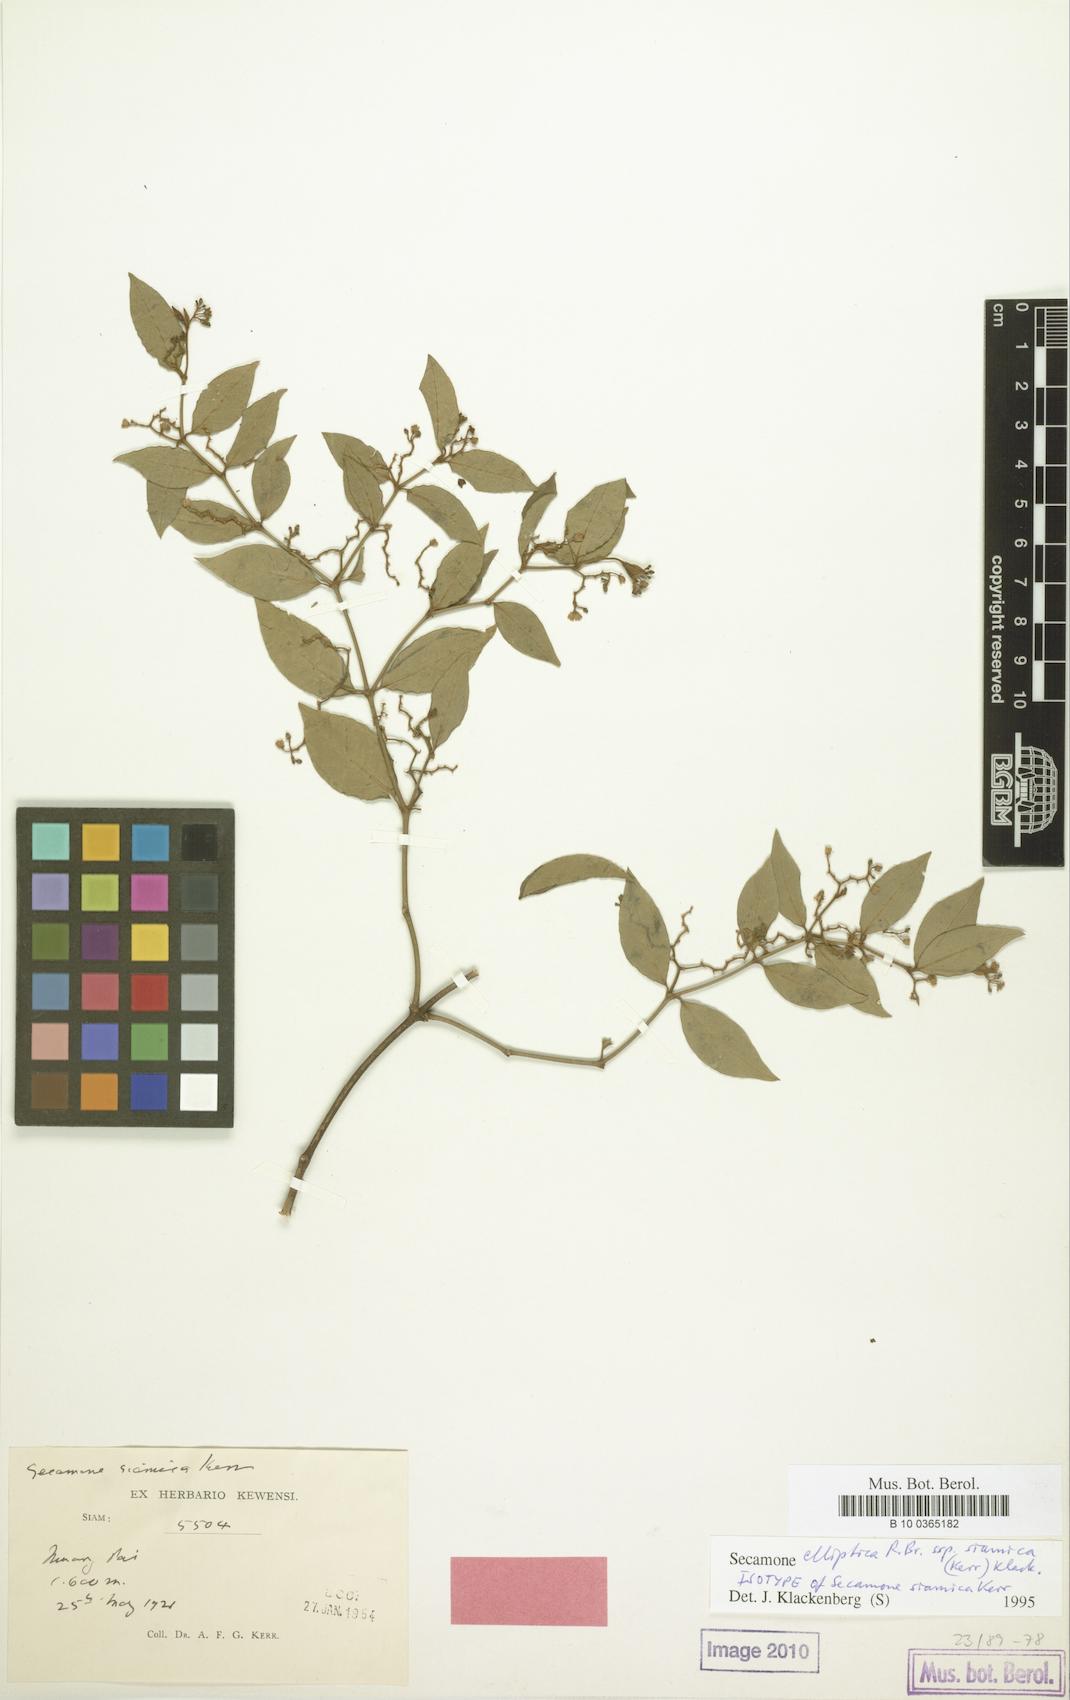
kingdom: Plantae
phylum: Tracheophyta
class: Magnoliopsida
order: Gentianales
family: Apocynaceae
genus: Secamone
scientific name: Secamone elliptica
